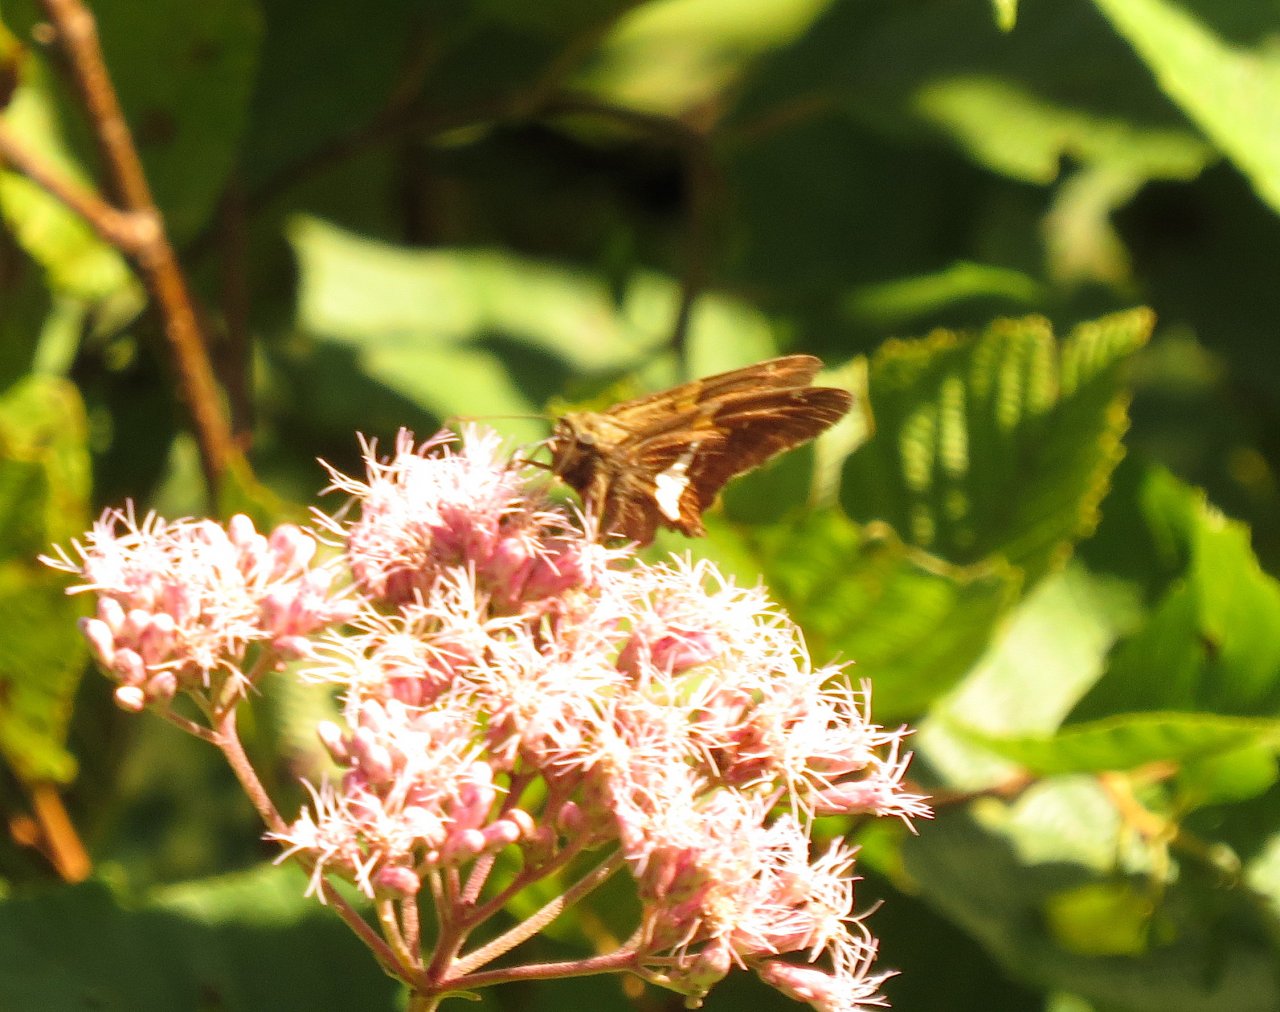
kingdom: Animalia
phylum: Arthropoda
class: Insecta
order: Lepidoptera
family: Hesperiidae
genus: Epargyreus
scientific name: Epargyreus clarus
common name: Silver-spotted Skipper
